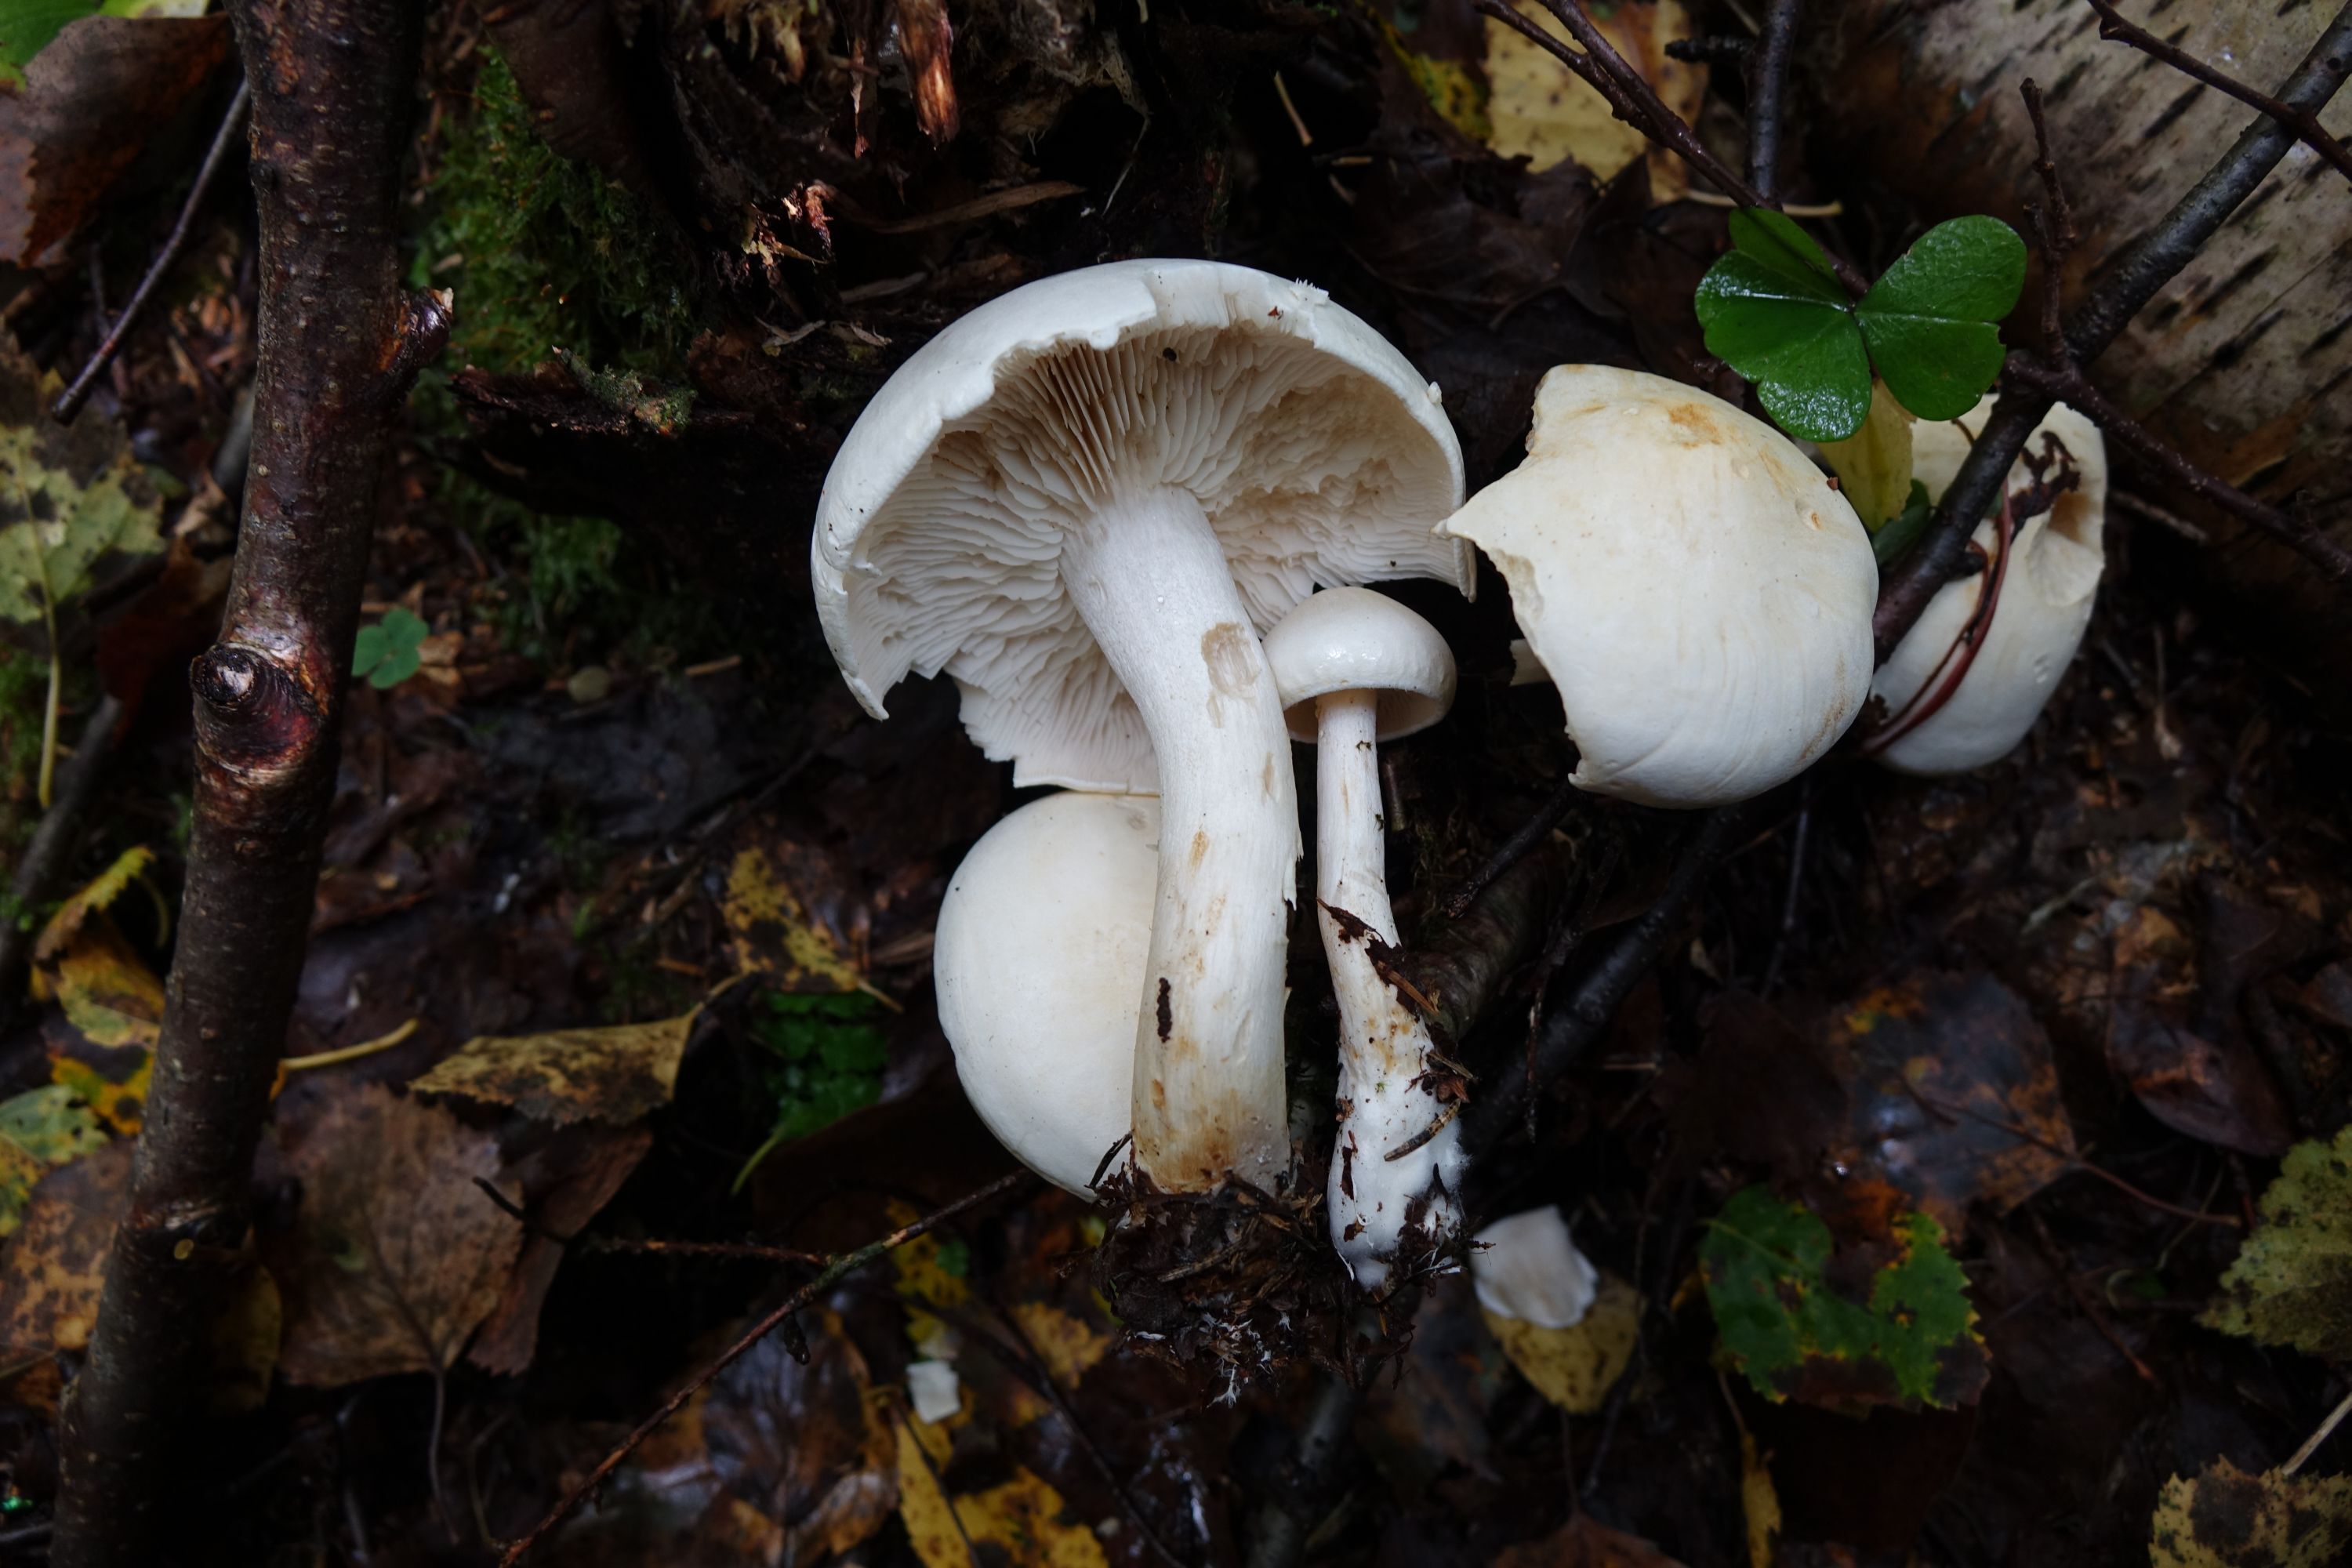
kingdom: Fungi
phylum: Basidiomycota
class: Agaricomycetes
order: Agaricales
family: Tricholomataceae
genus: Tricholoma
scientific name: Tricholoma stiparophyllum
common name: Chemical knight
